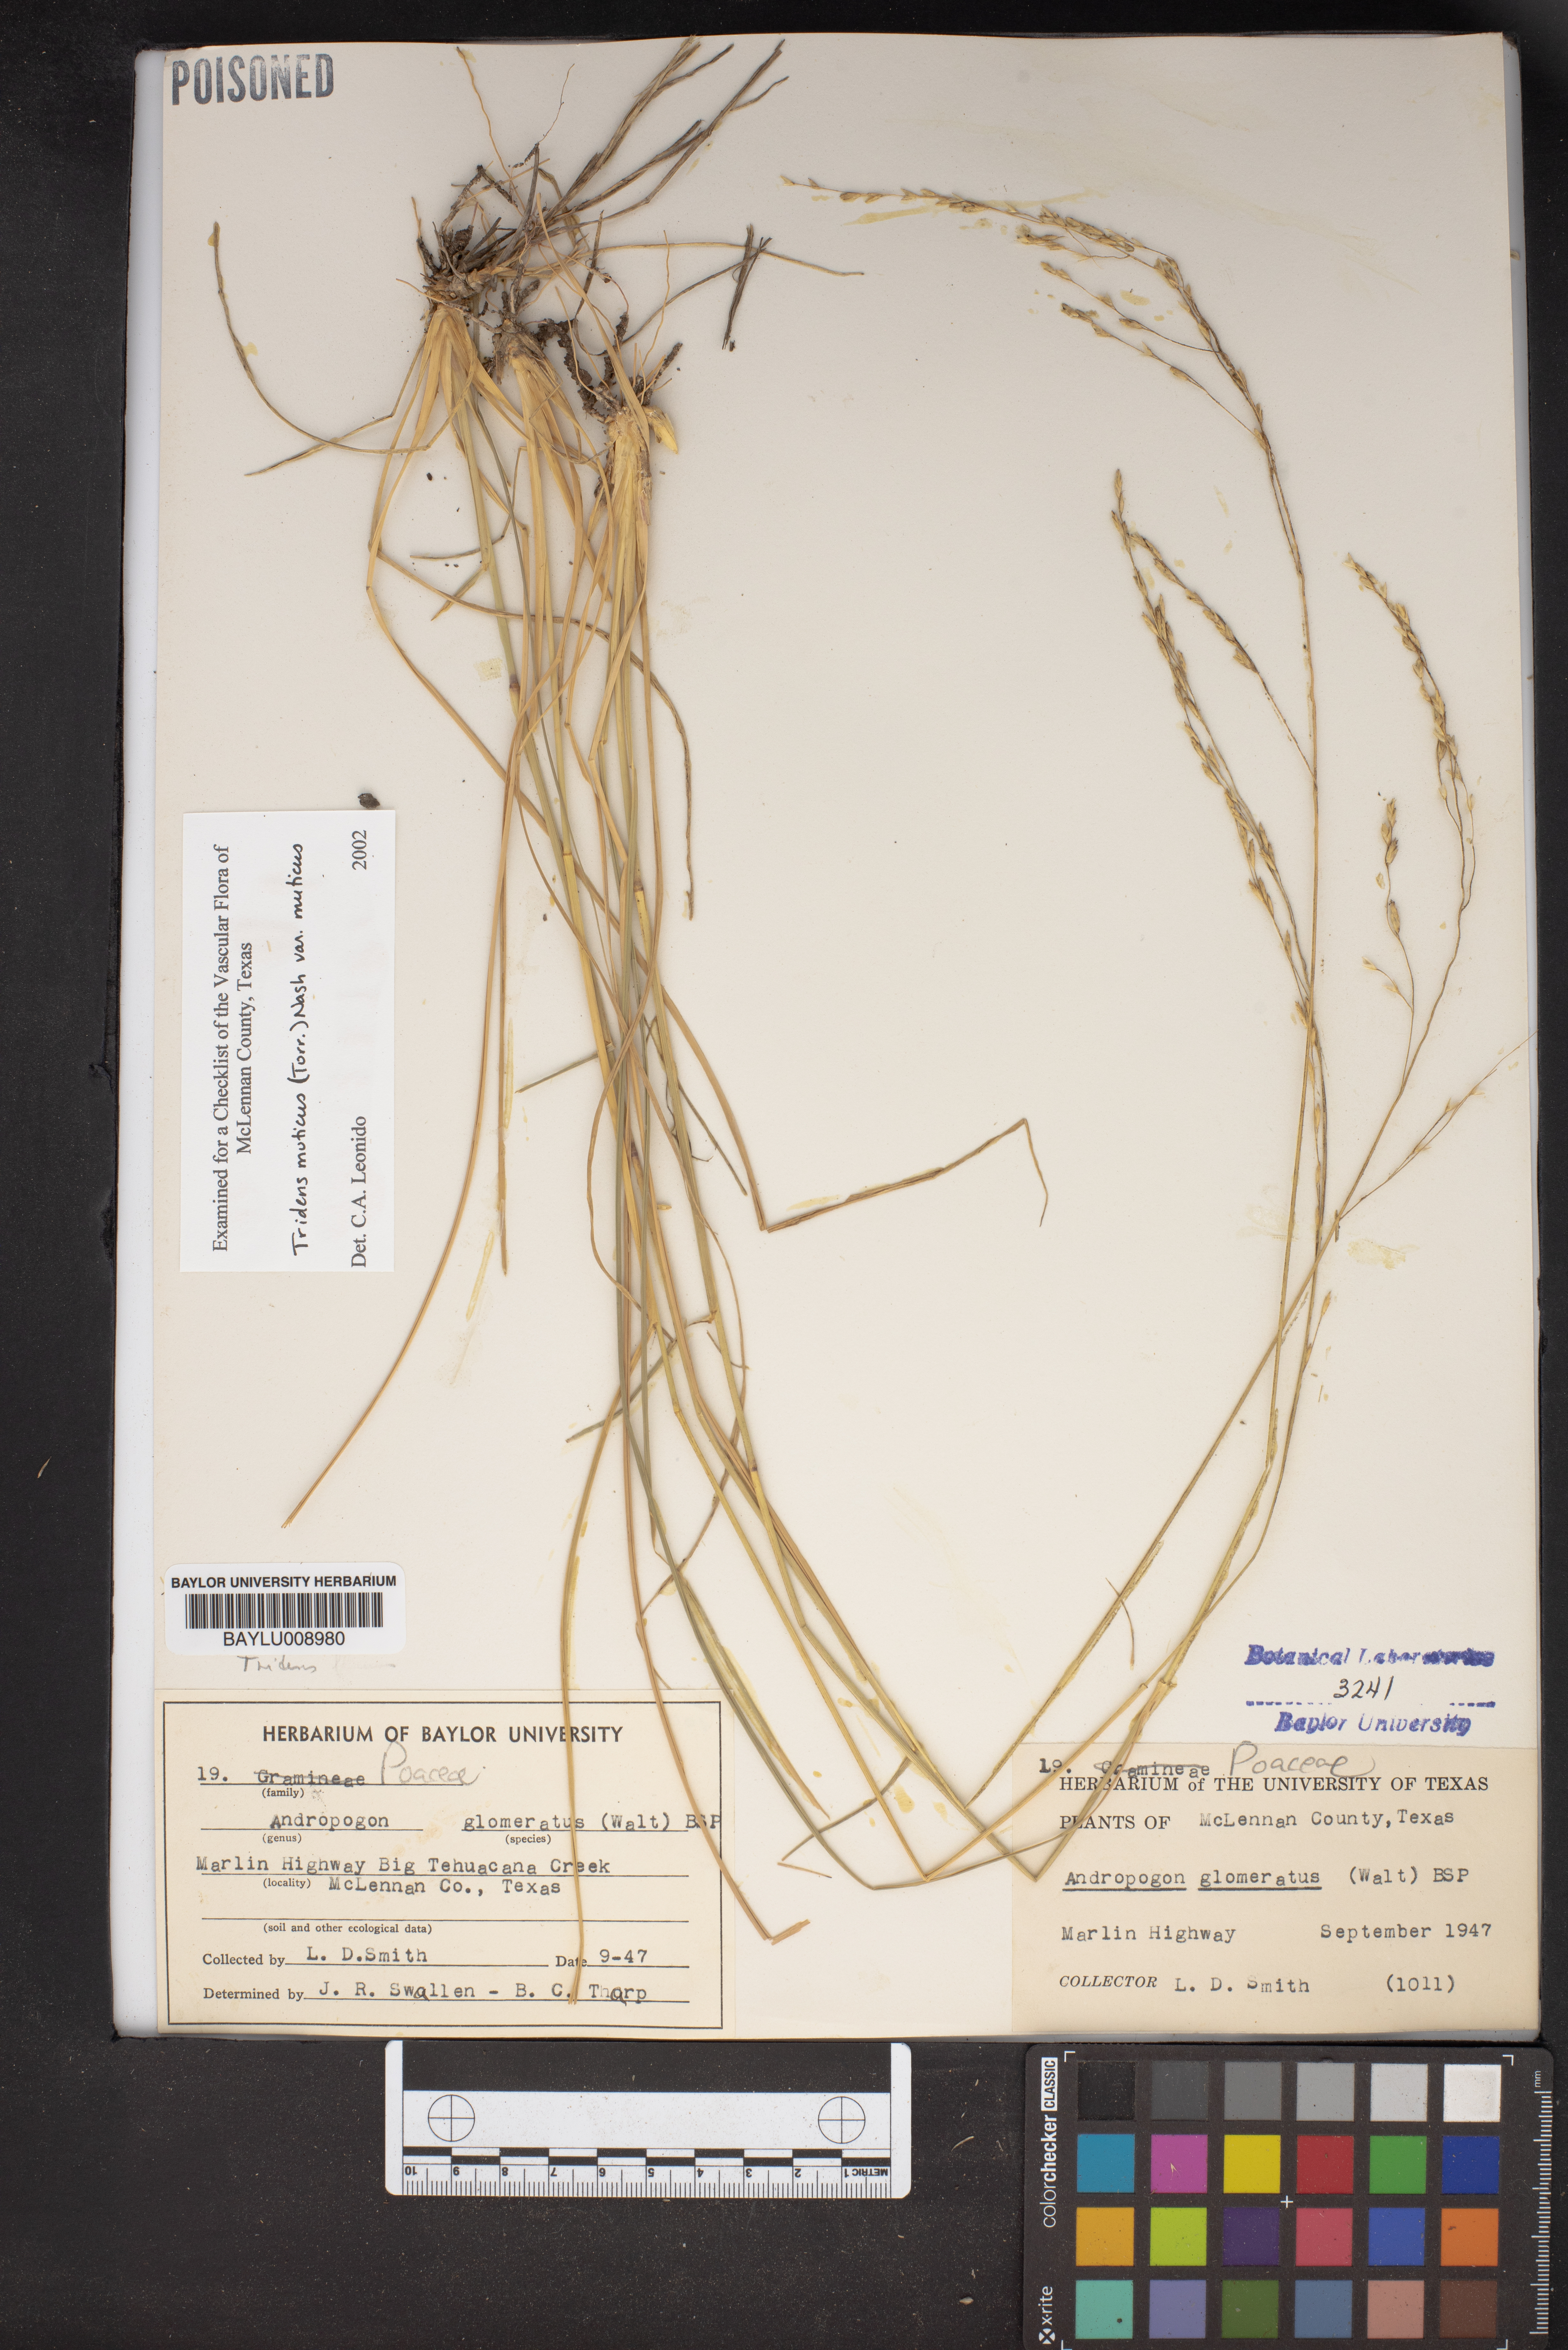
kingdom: Plantae
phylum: Tracheophyta
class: Liliopsida
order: Poales
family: Poaceae
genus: Tridentopsis
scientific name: Tridentopsis mutica
